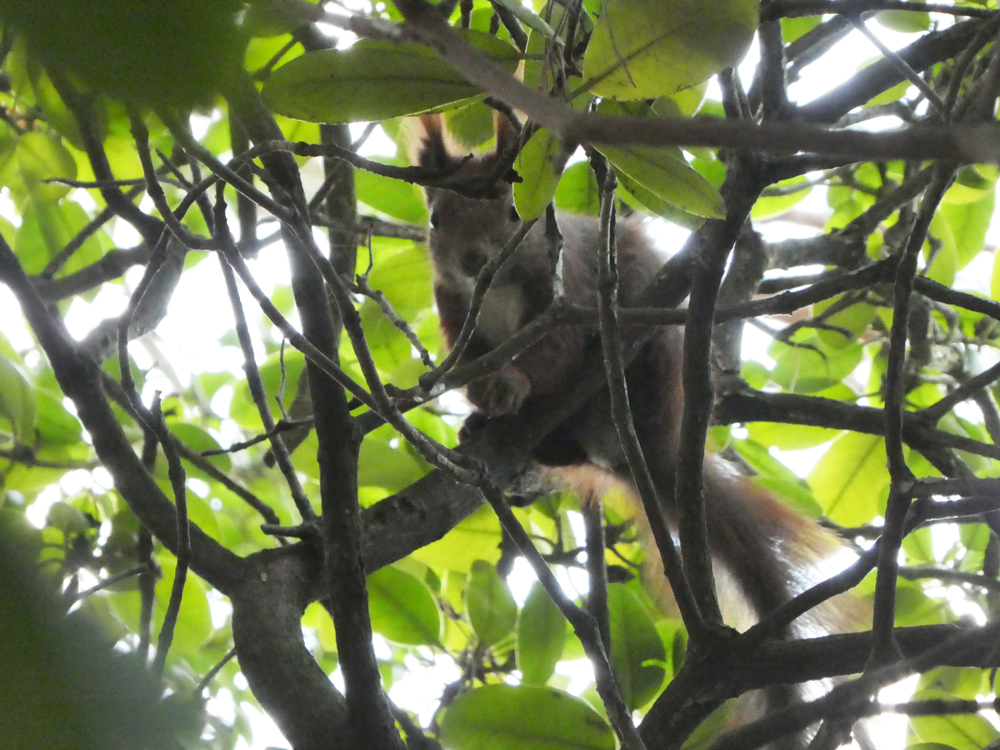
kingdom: Animalia
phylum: Chordata
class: Mammalia
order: Rodentia
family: Sciuridae
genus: Sciurus
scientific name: Sciurus vulgaris
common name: Eurasian red squirrel
